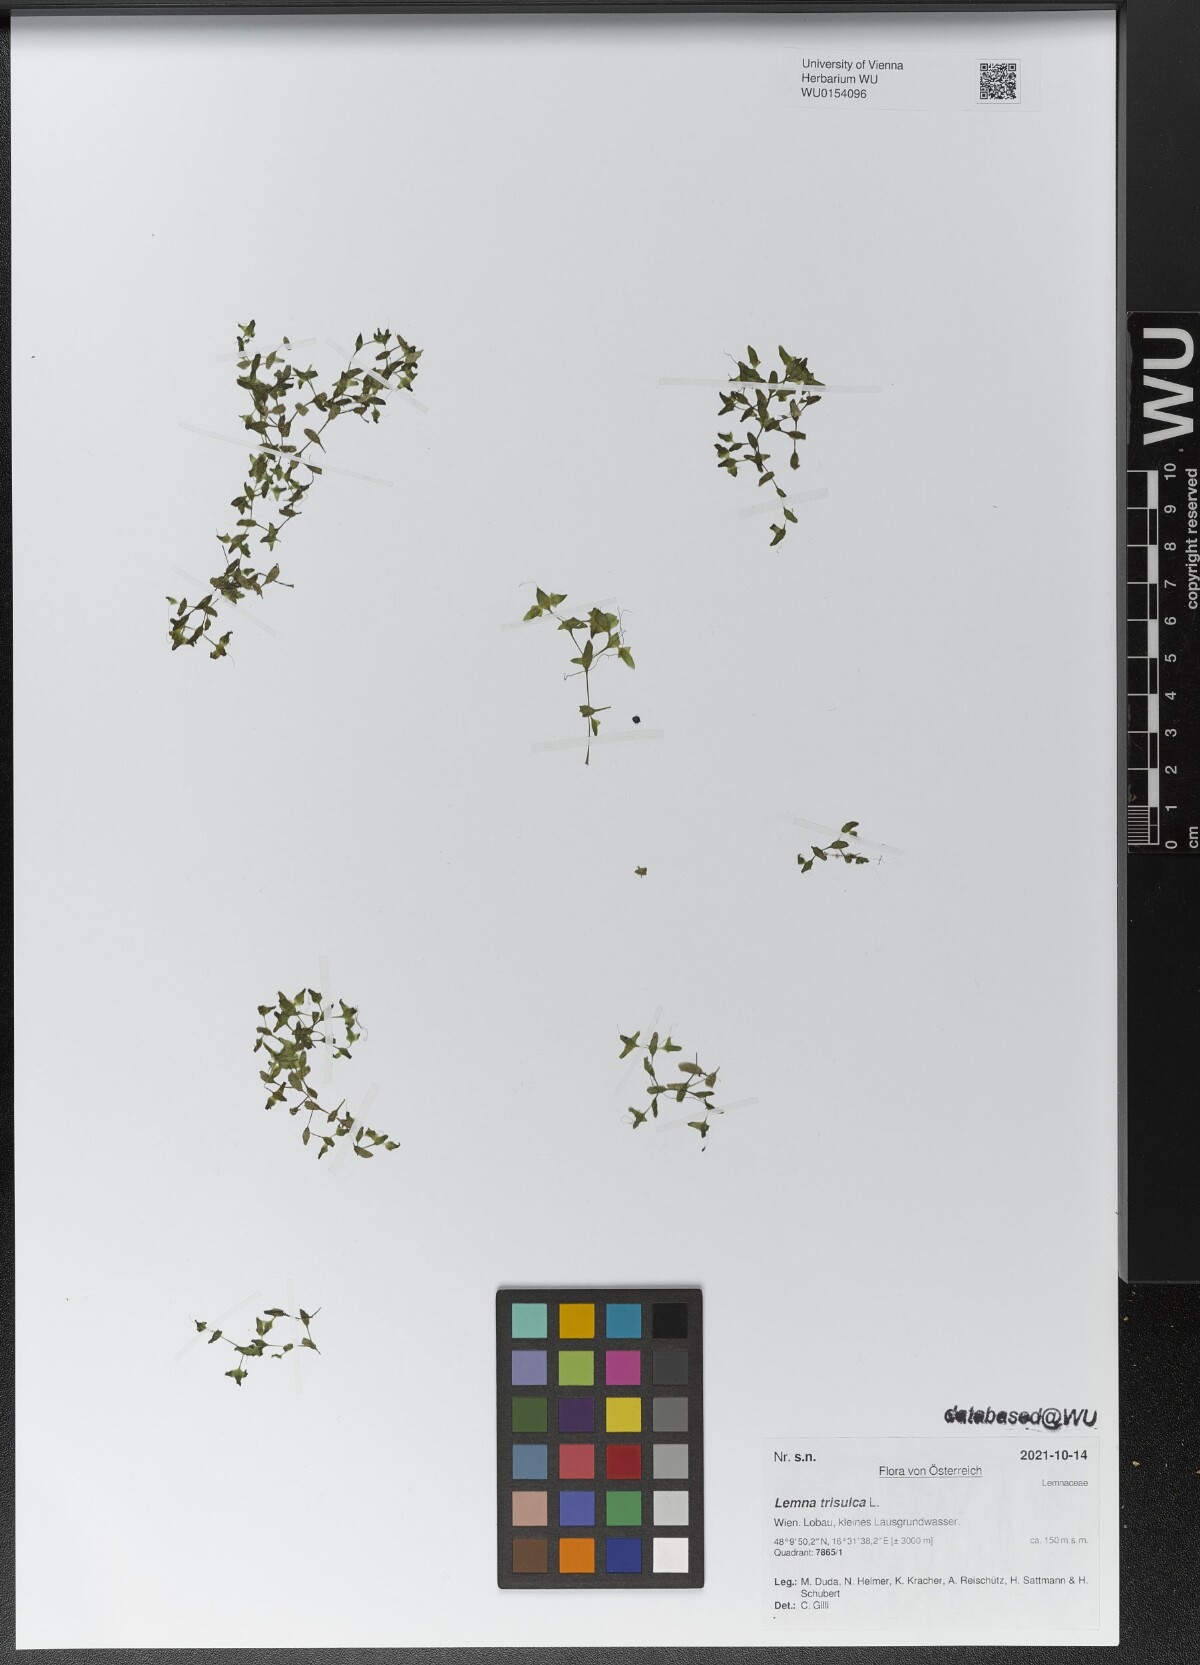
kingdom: Plantae
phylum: Tracheophyta
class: Liliopsida
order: Alismatales
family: Araceae
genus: Lemna
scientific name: Lemna trisulca
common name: Ivy-leaved duckweed
